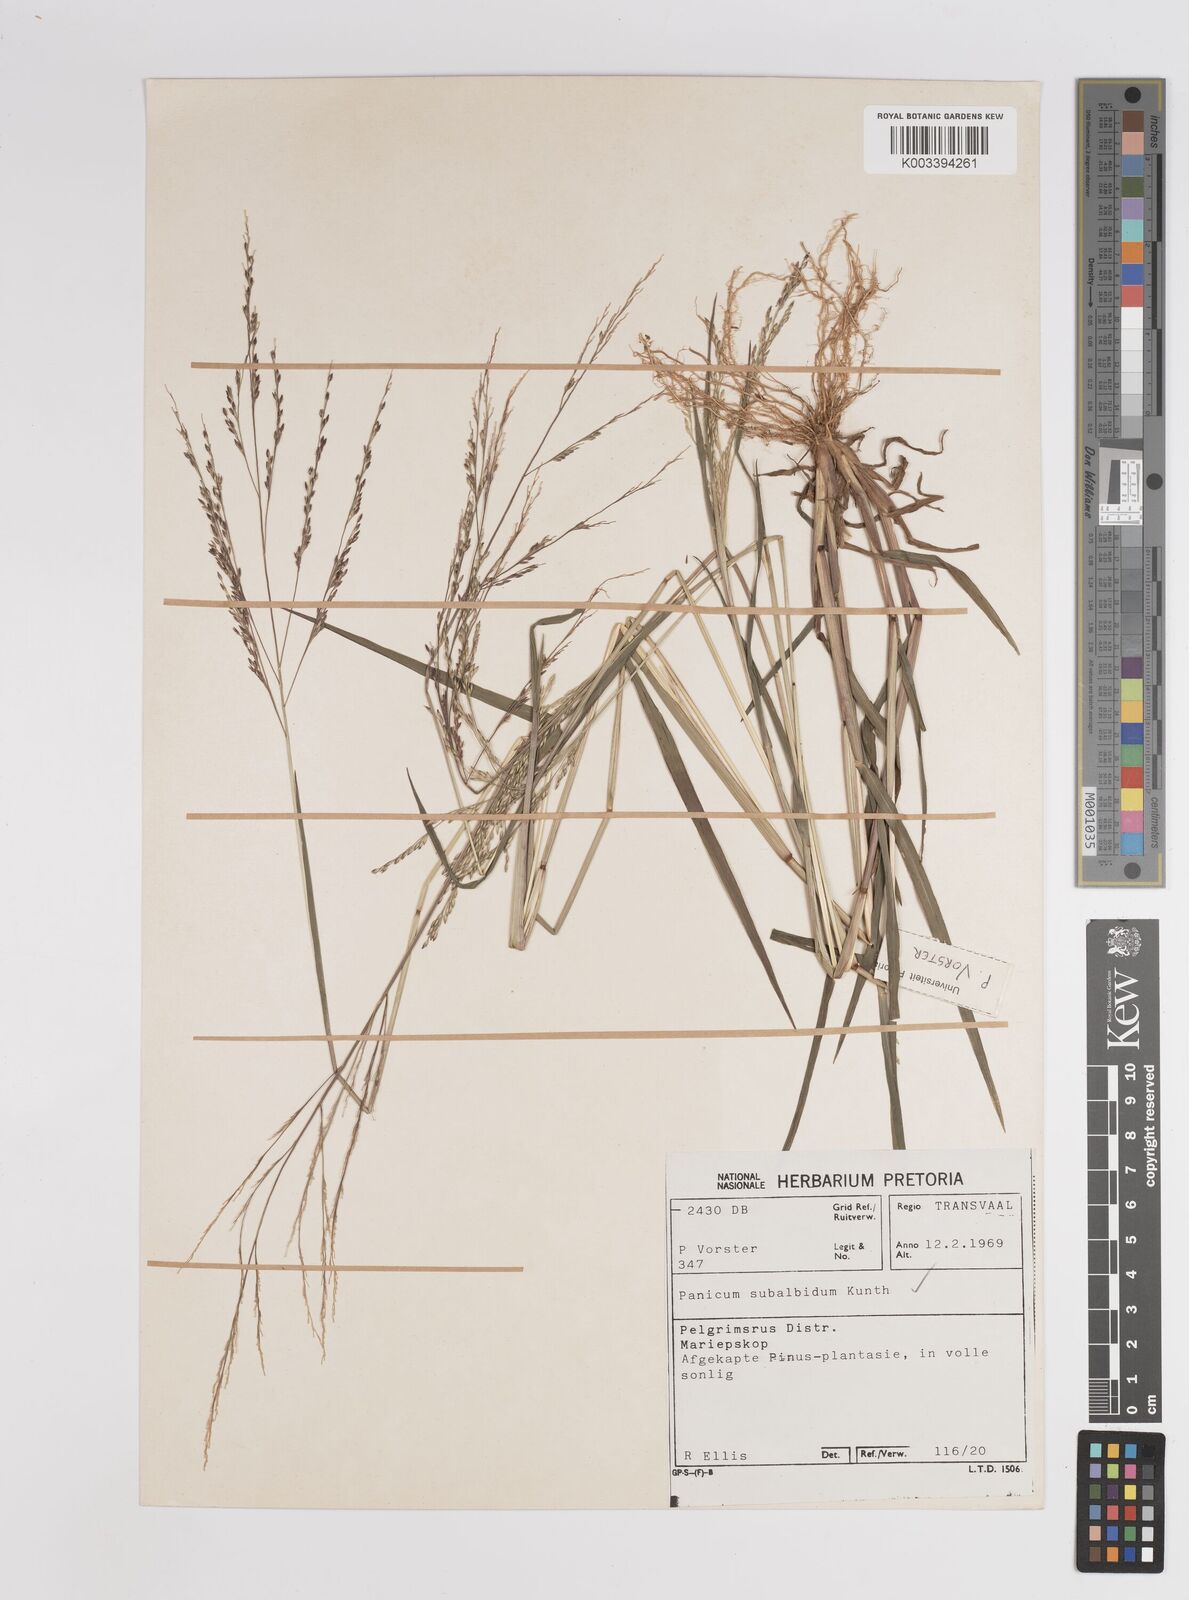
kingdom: Plantae
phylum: Tracheophyta
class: Liliopsida
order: Poales
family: Poaceae
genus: Panicum
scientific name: Panicum subalbidum
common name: Elbow buffalo grass
